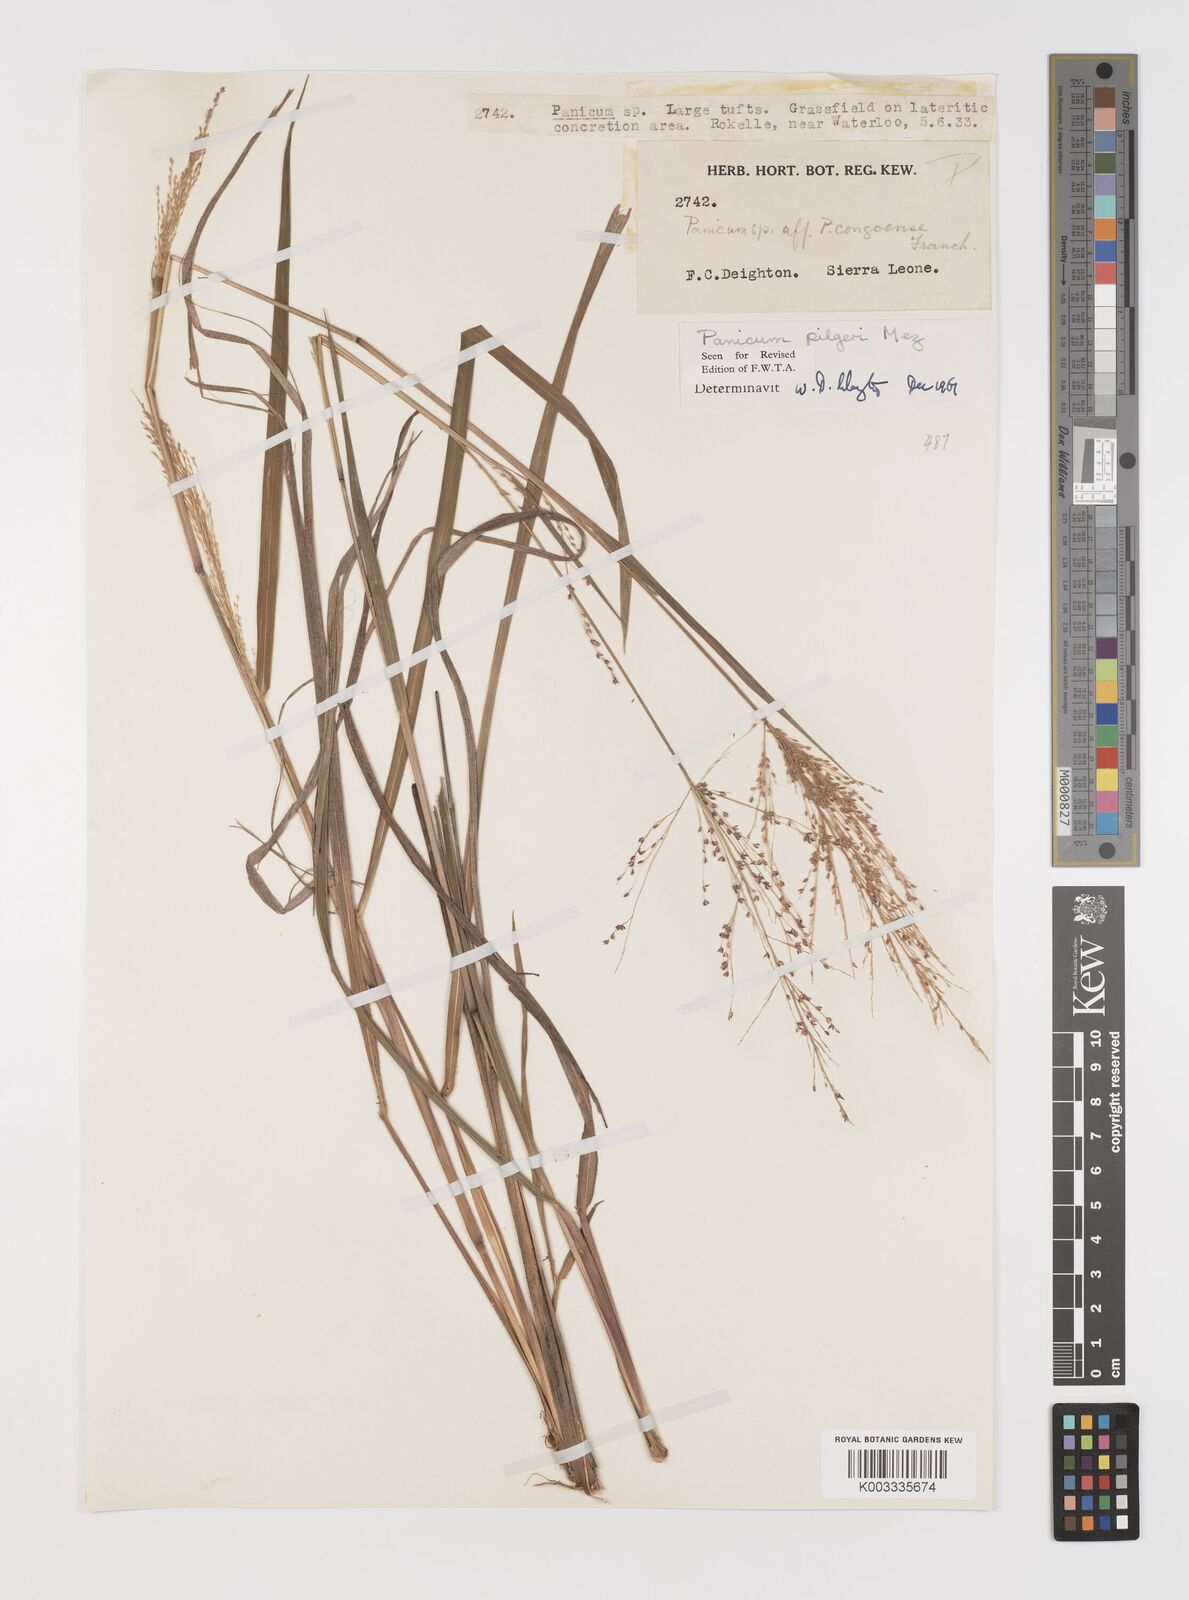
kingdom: Plantae
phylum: Tracheophyta
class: Liliopsida
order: Poales
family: Poaceae
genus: Panicum
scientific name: Panicum
